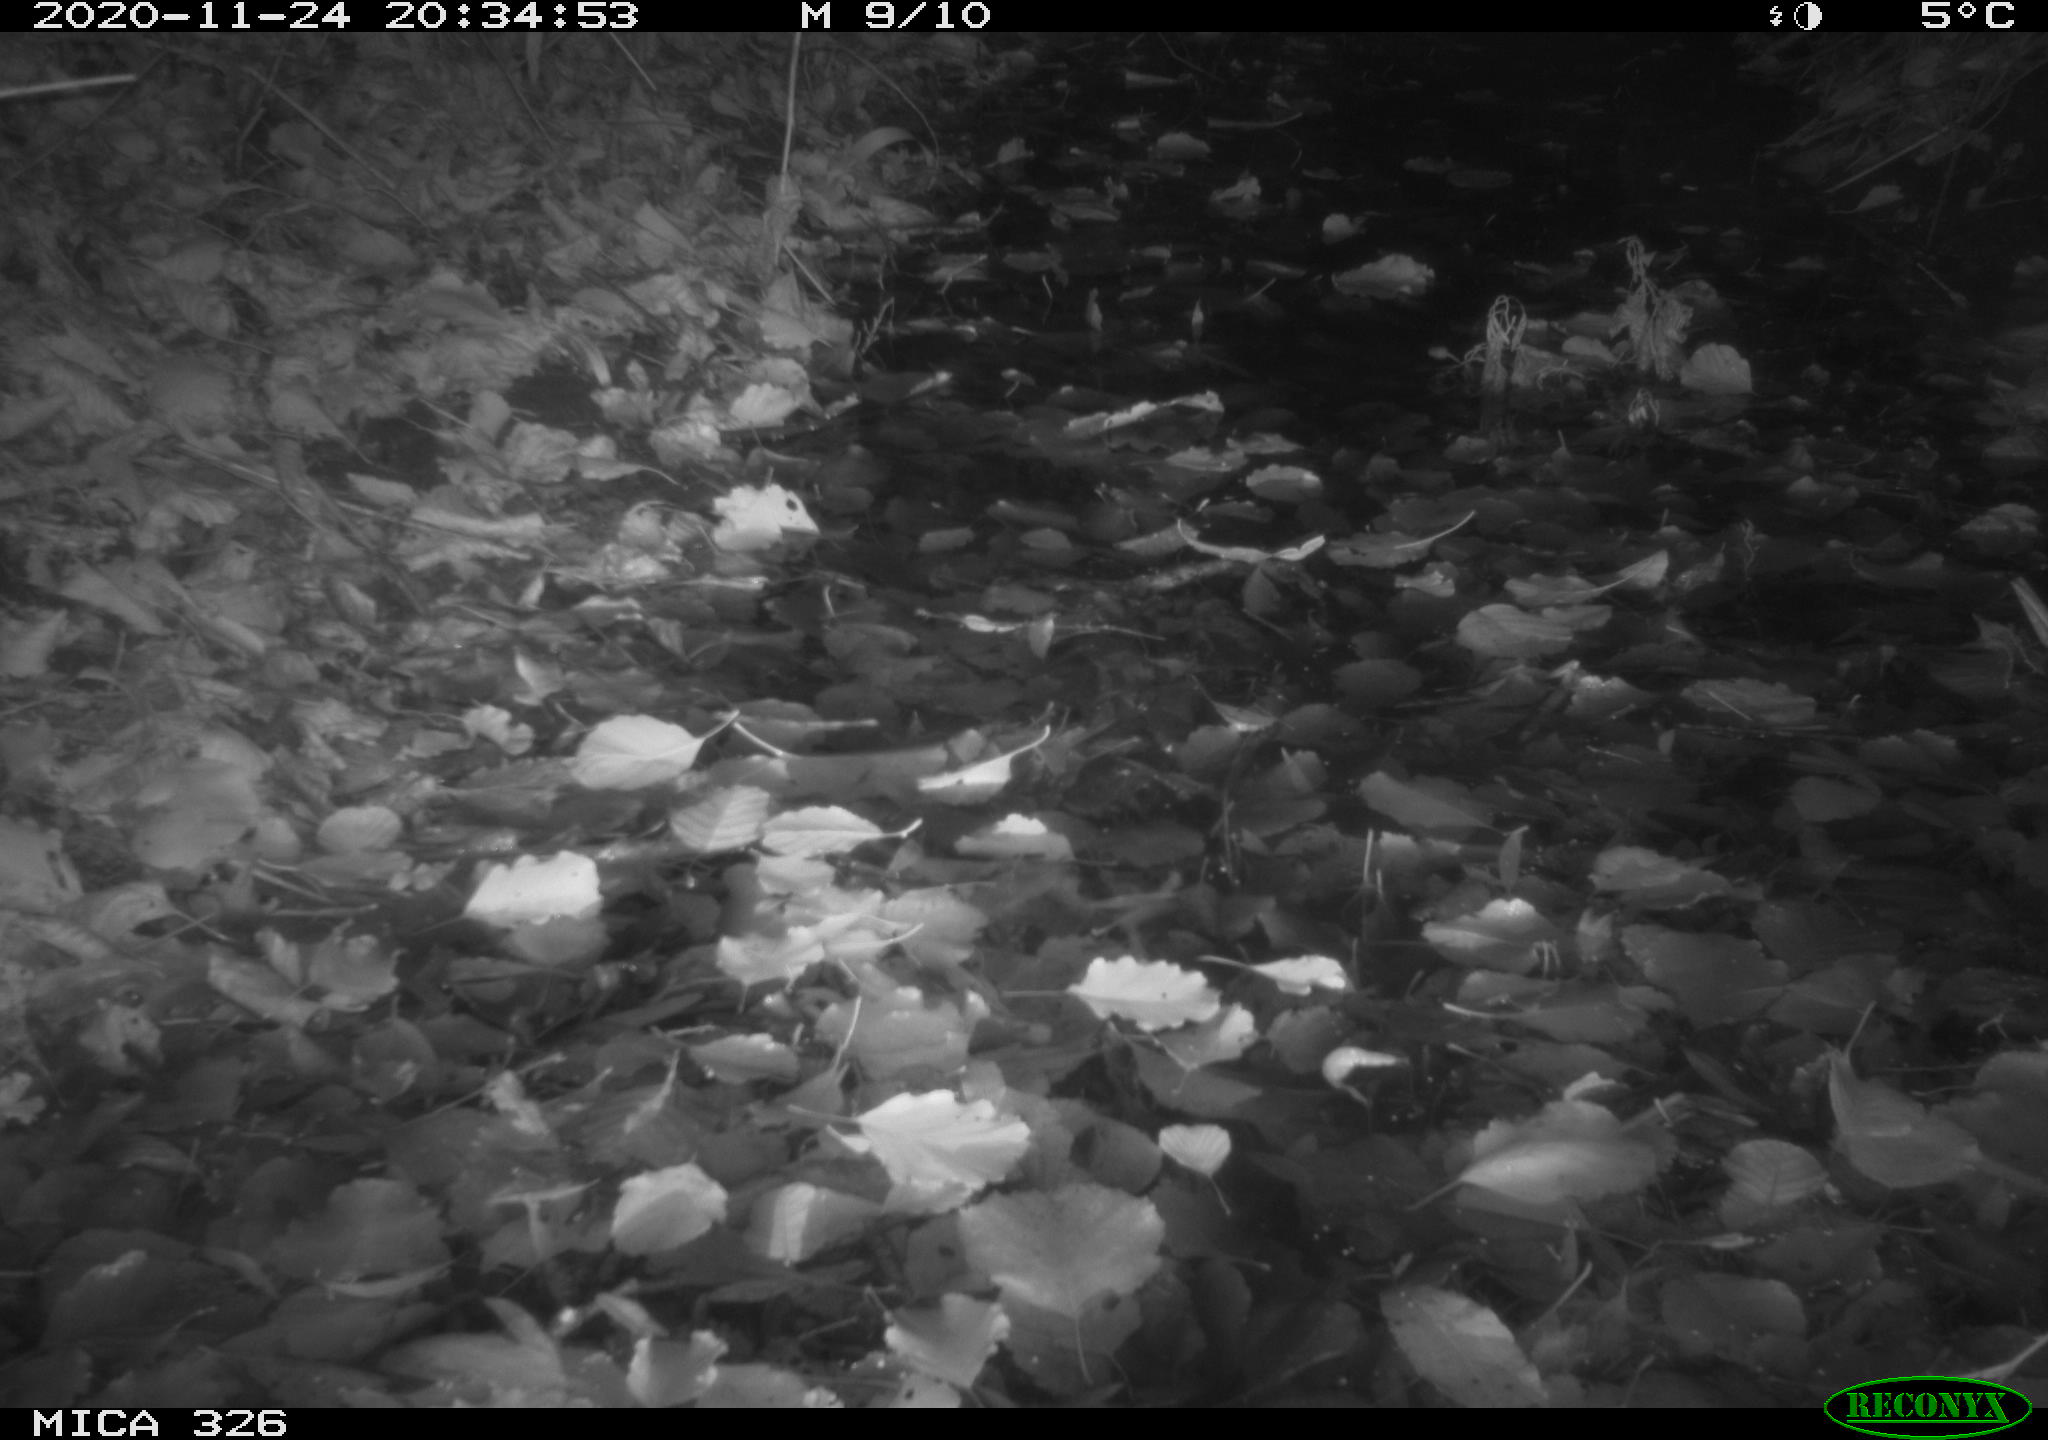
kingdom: Animalia
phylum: Chordata
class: Mammalia
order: Rodentia
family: Muridae
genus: Rattus
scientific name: Rattus norvegicus
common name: Brown rat
